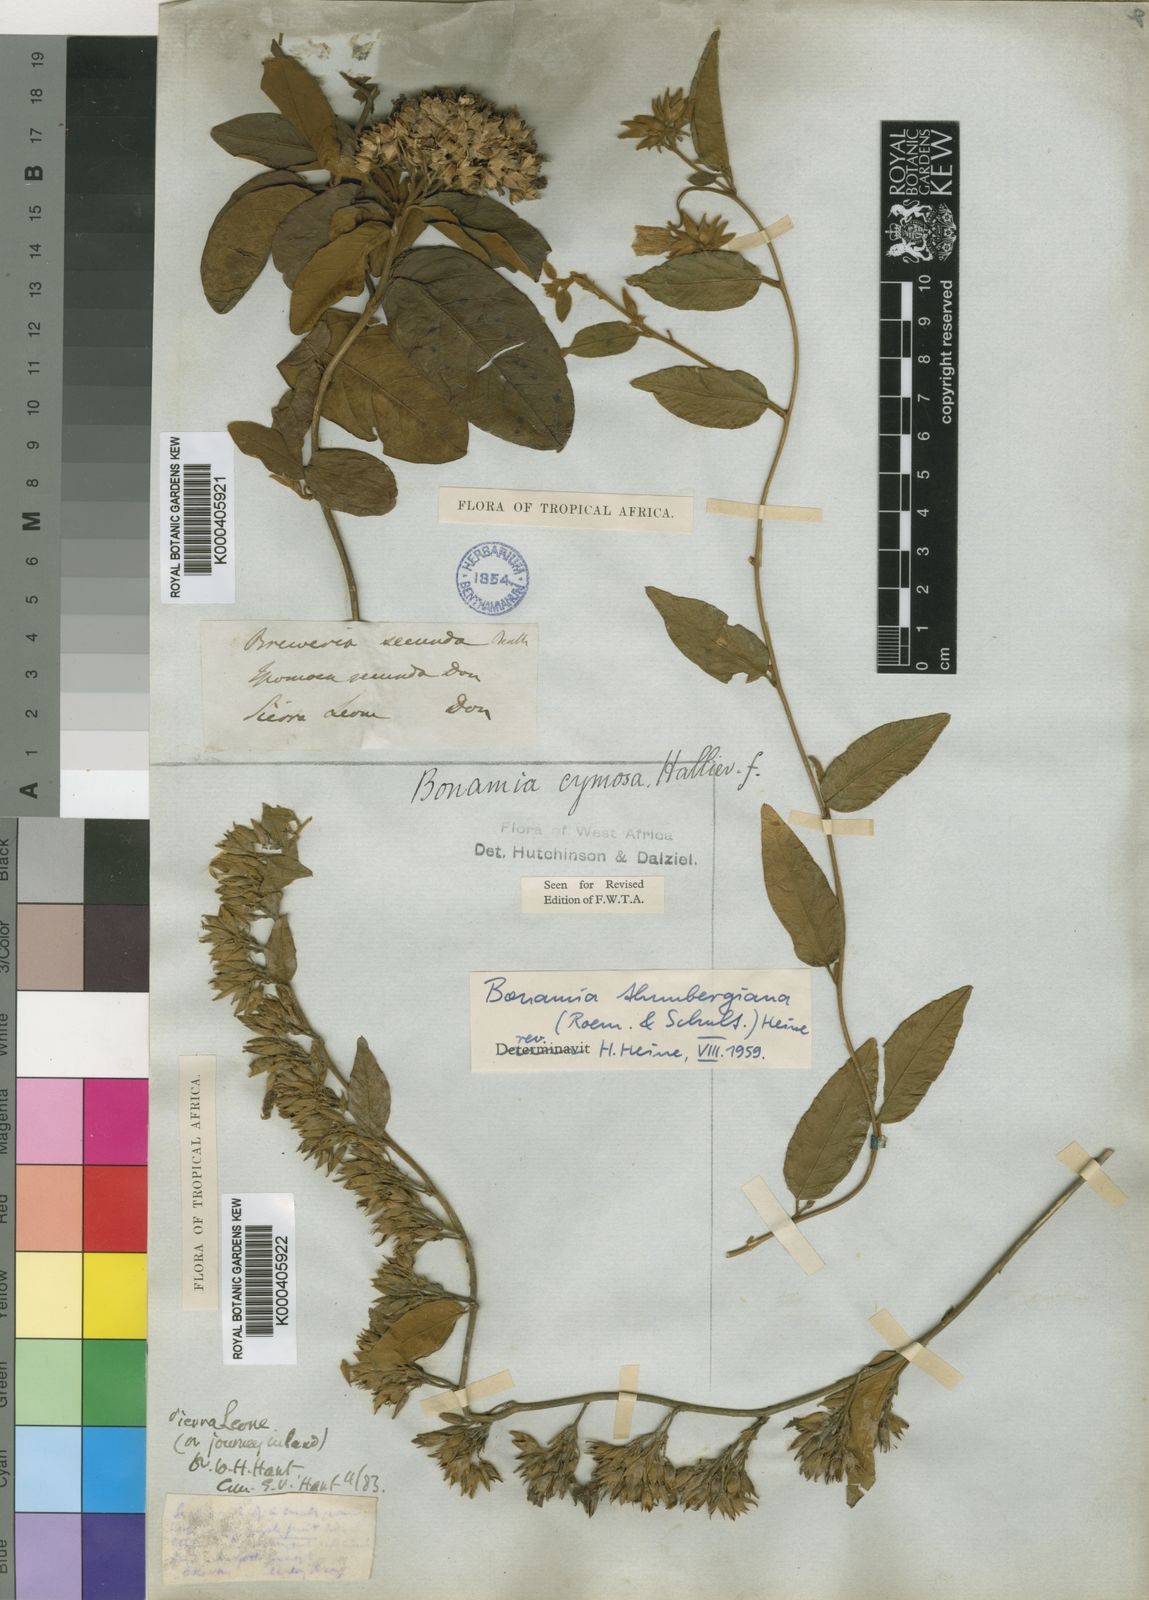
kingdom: Plantae
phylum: Tracheophyta
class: Magnoliopsida
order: Solanales
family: Convolvulaceae
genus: Bonamia
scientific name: Bonamia thunbergiana
